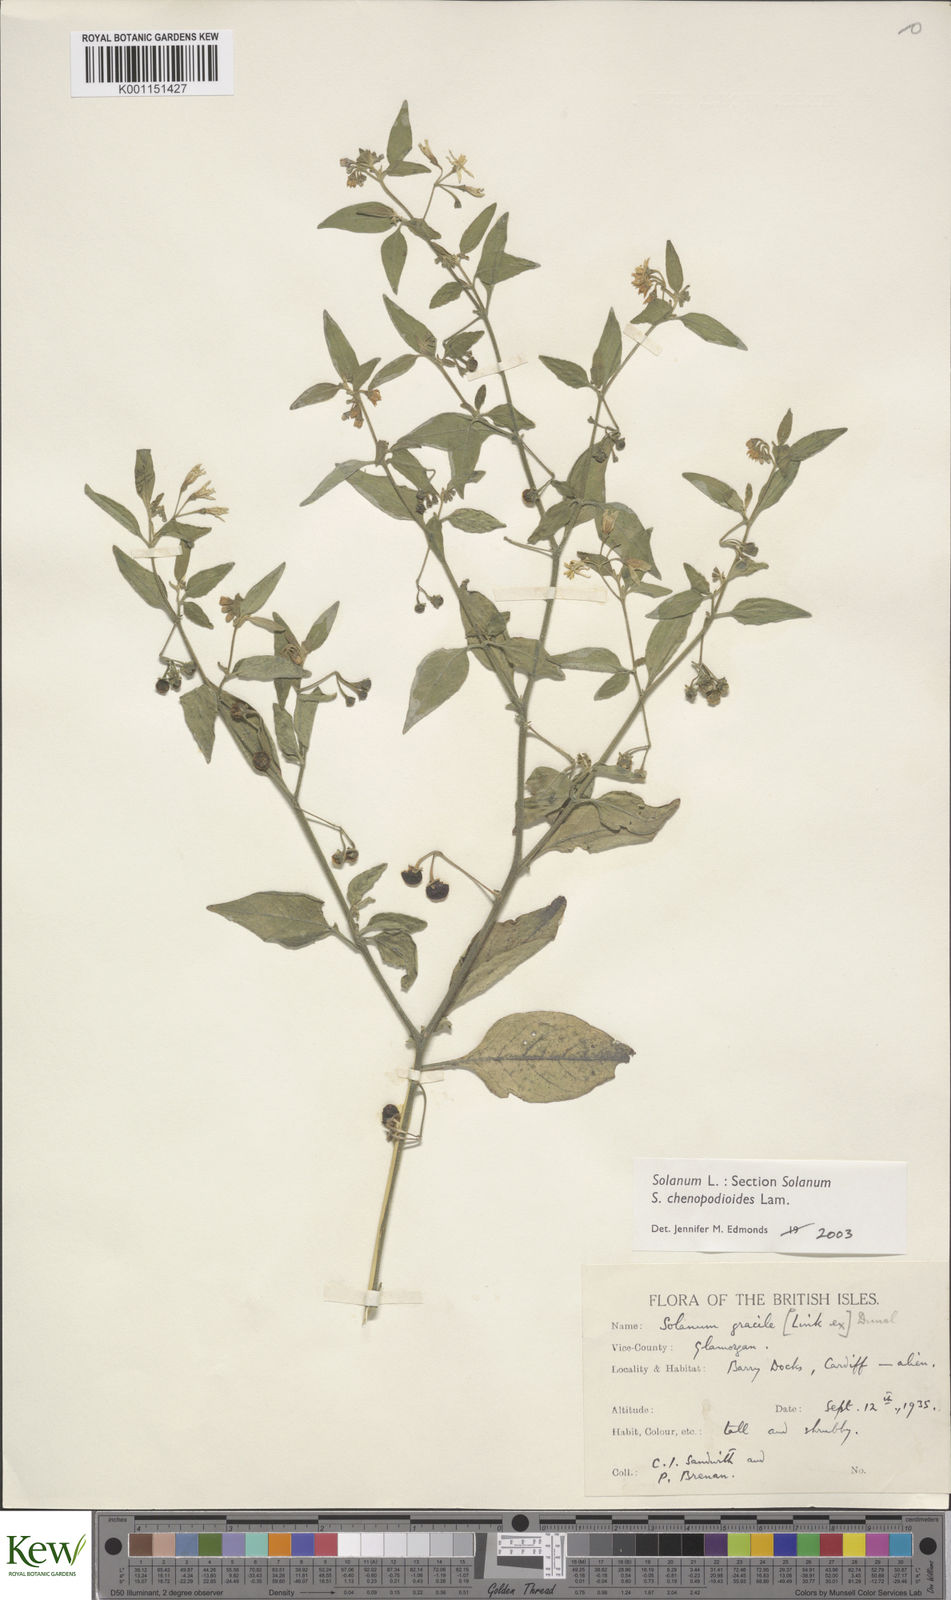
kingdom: Plantae
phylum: Tracheophyta
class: Magnoliopsida
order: Solanales
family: Solanaceae
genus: Solanum
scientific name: Solanum chenopodioides
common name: Tall nightshade
